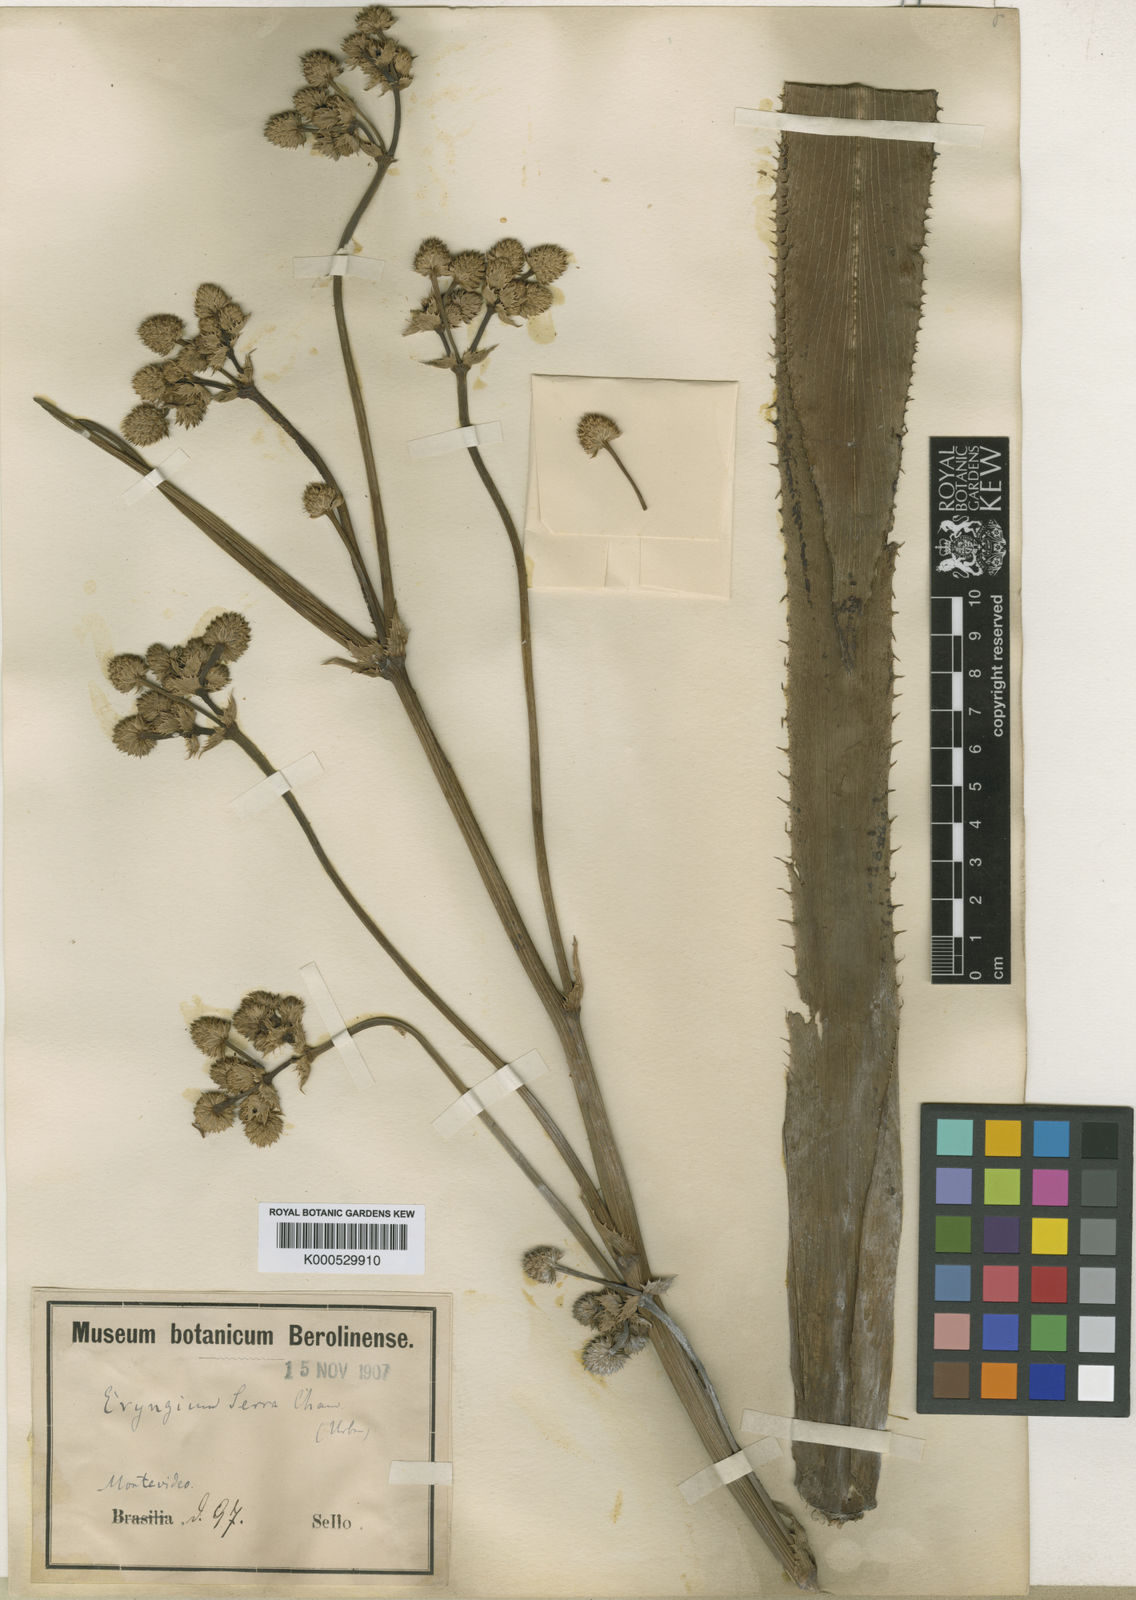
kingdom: Plantae
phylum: Tracheophyta
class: Magnoliopsida
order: Apiales
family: Apiaceae
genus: Eryngium
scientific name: Eryngium serra
